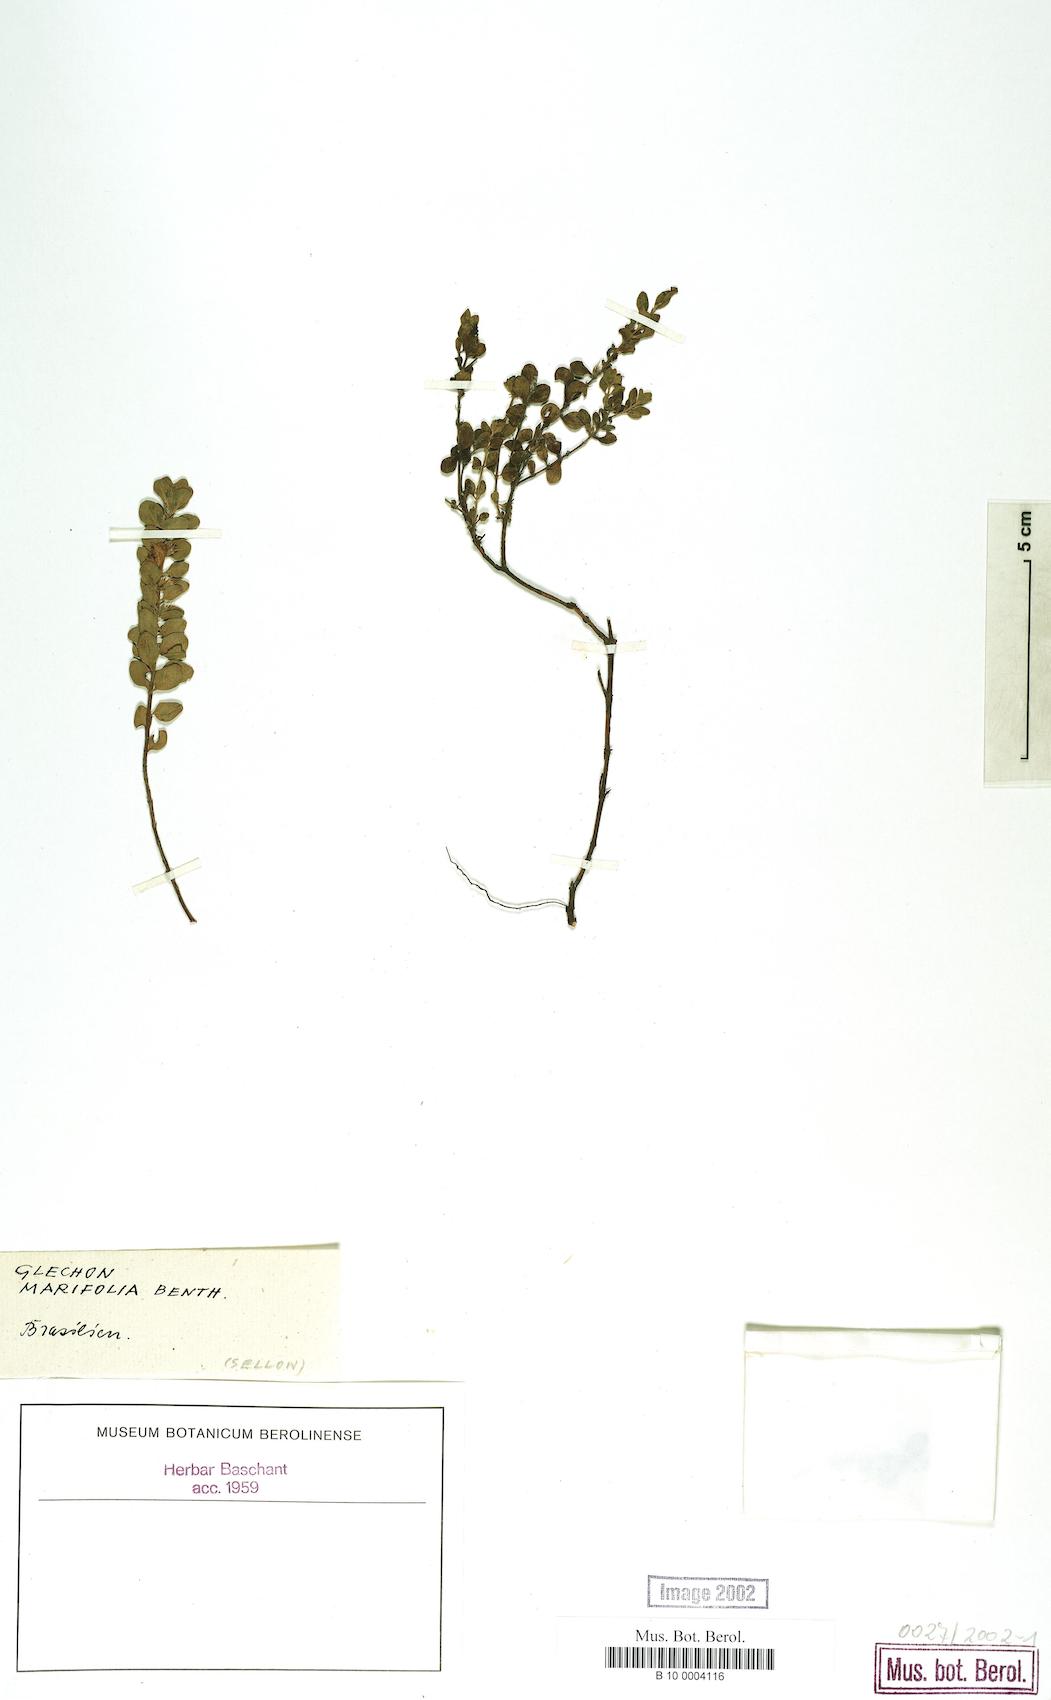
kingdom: Plantae
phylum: Tracheophyta
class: Magnoliopsida
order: Lamiales
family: Lamiaceae
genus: Glechon
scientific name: Glechon marifolia
